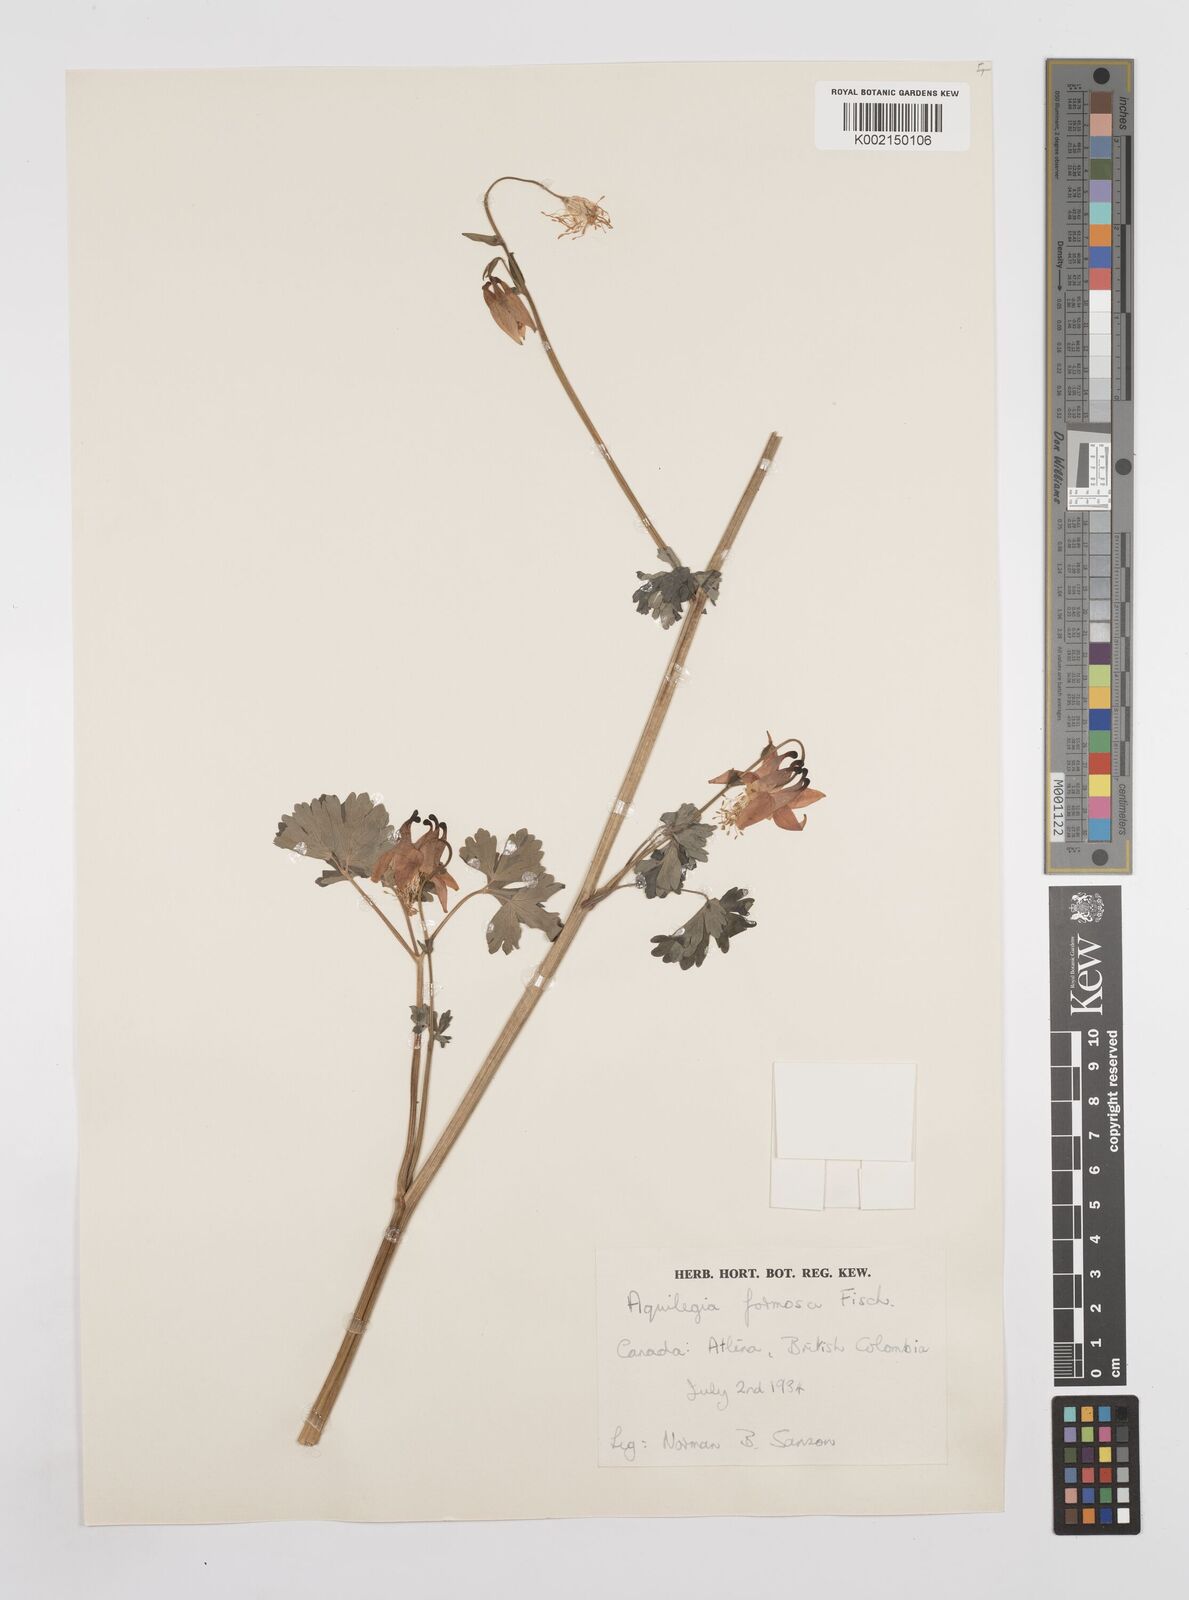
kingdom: Plantae
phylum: Tracheophyta
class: Magnoliopsida
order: Ranunculales
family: Ranunculaceae
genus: Aquilegia
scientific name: Aquilegia
